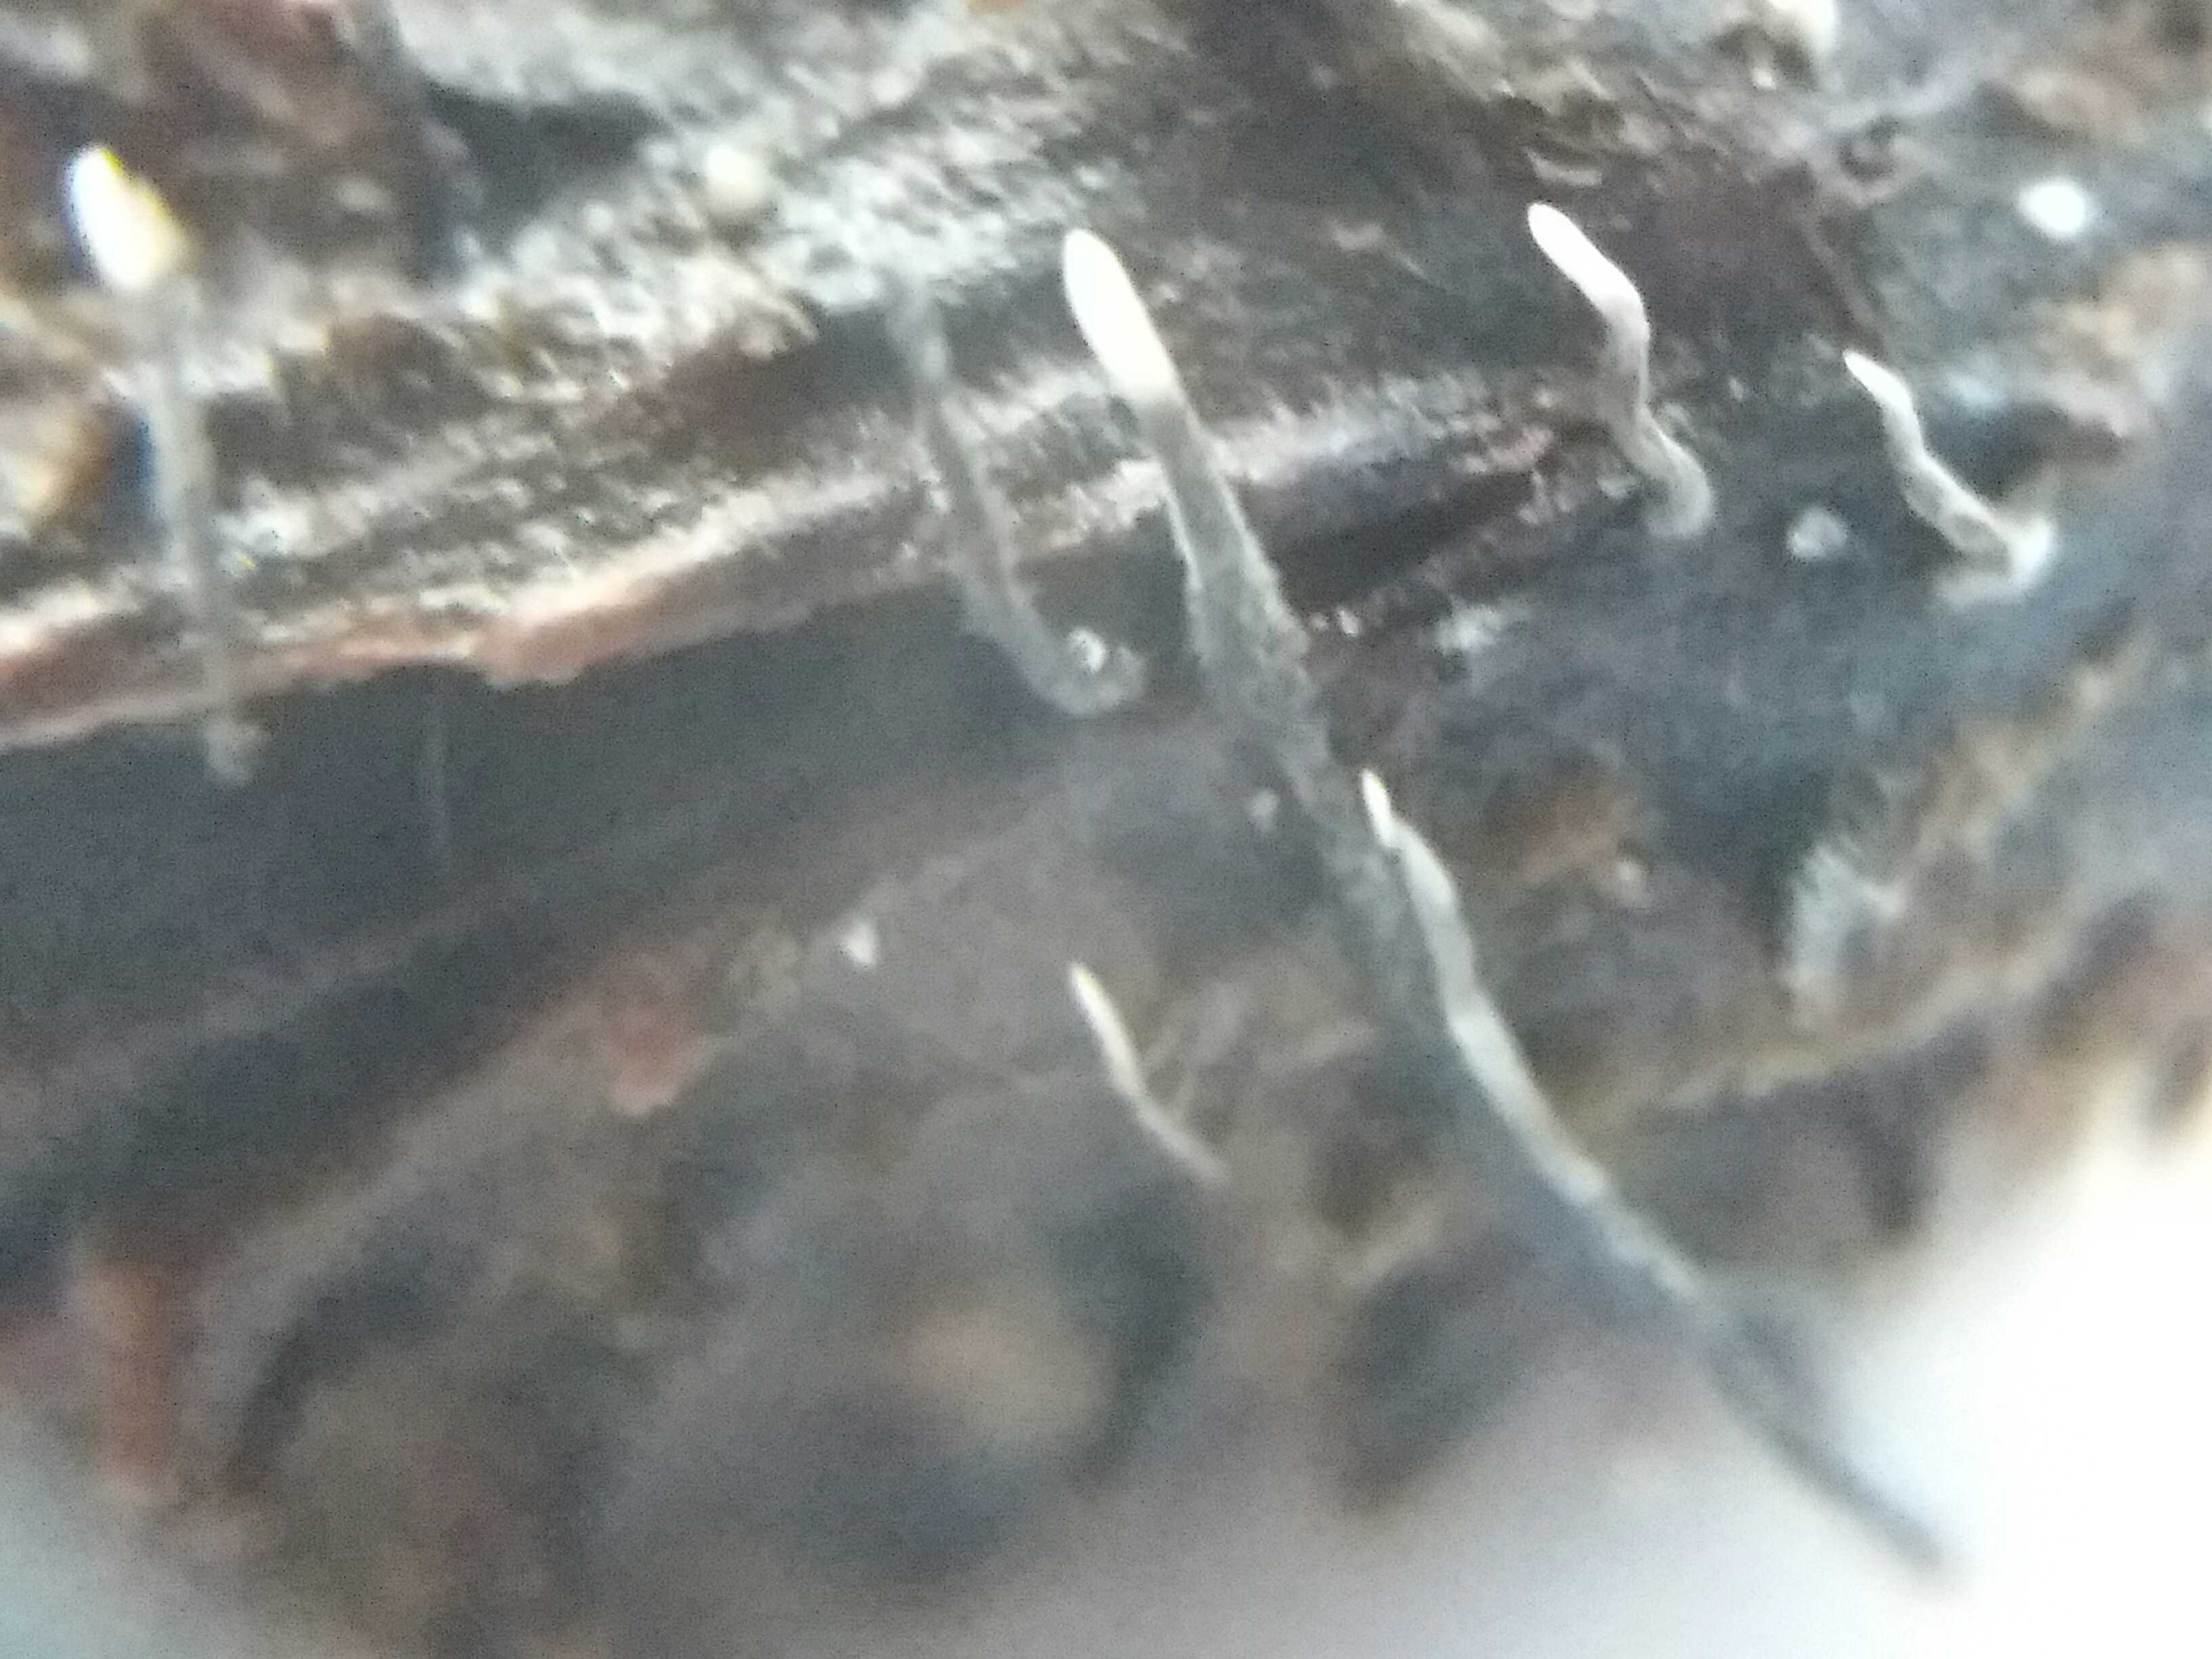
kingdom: Fungi
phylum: Ascomycota
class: Sordariomycetes
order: Xylariales
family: Xylariaceae
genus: Xylaria
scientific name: Xylaria carpophila
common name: bogskål-stødsvamp
